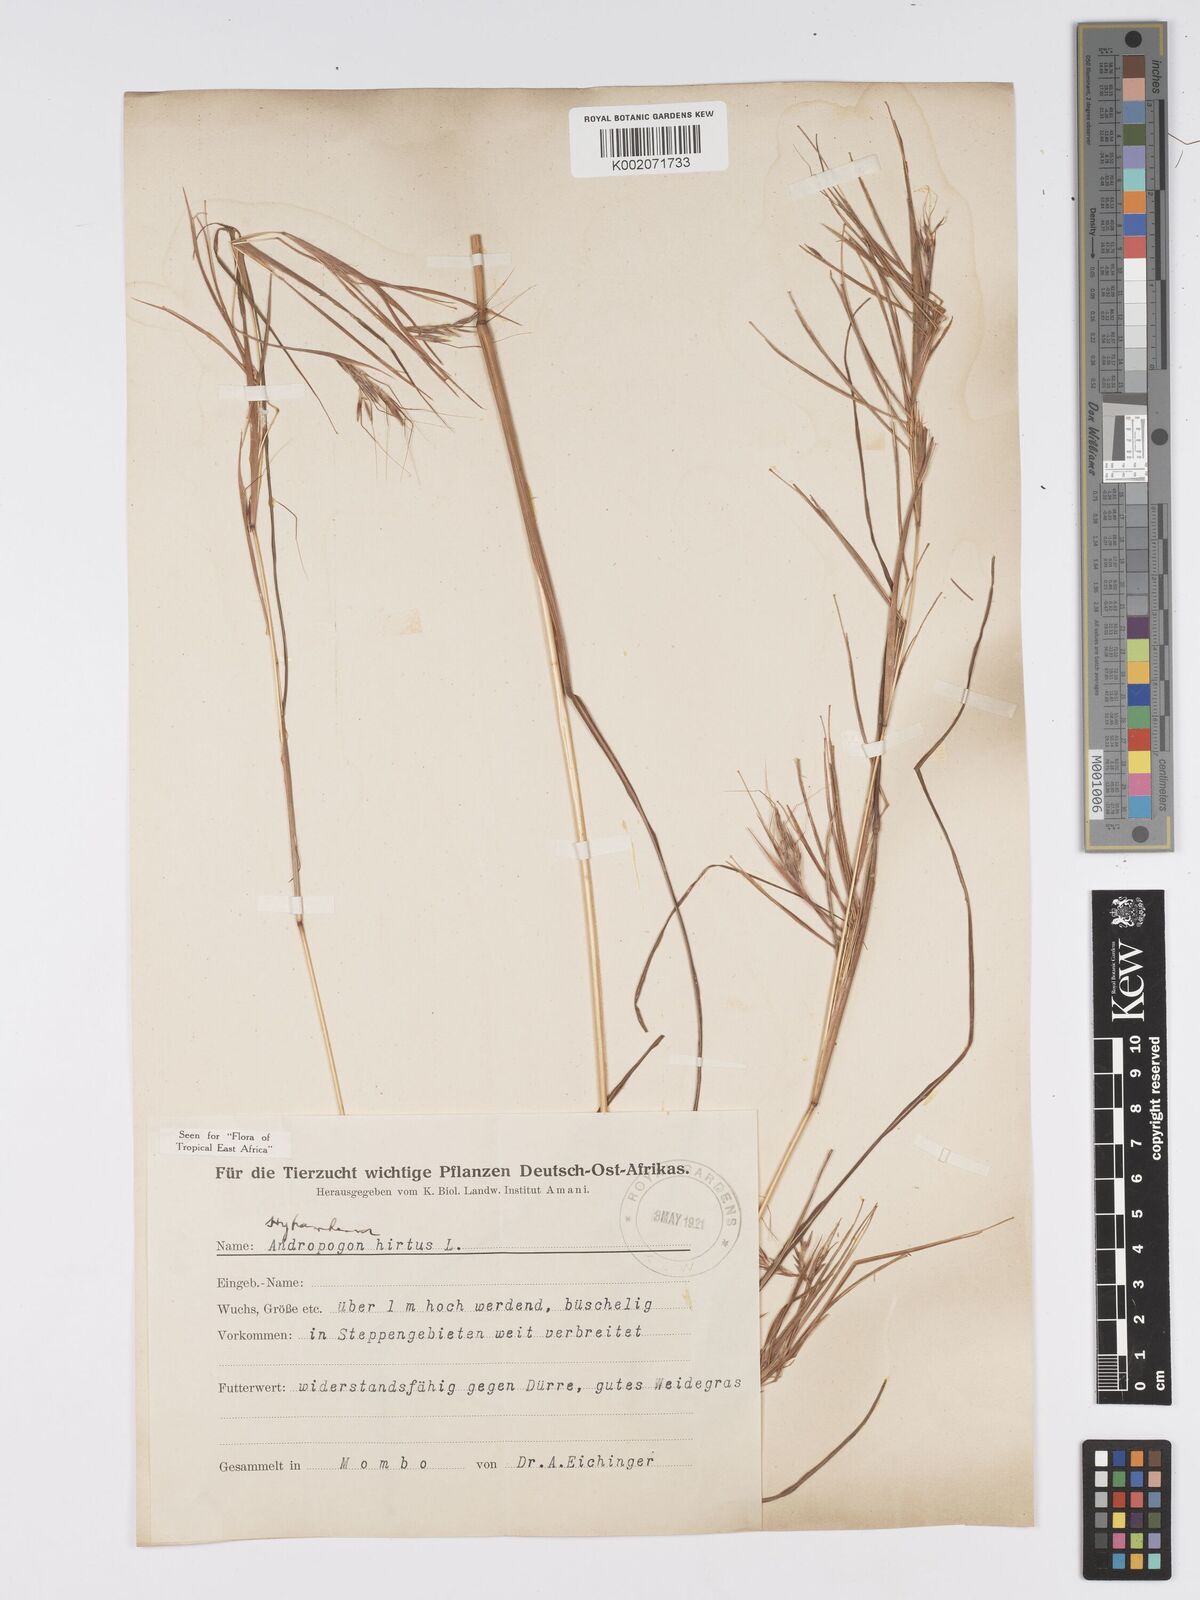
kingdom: Plantae
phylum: Tracheophyta
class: Liliopsida
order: Poales
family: Poaceae
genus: Hyparrhenia
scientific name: Hyparrhenia hirta
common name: Thatching grass
